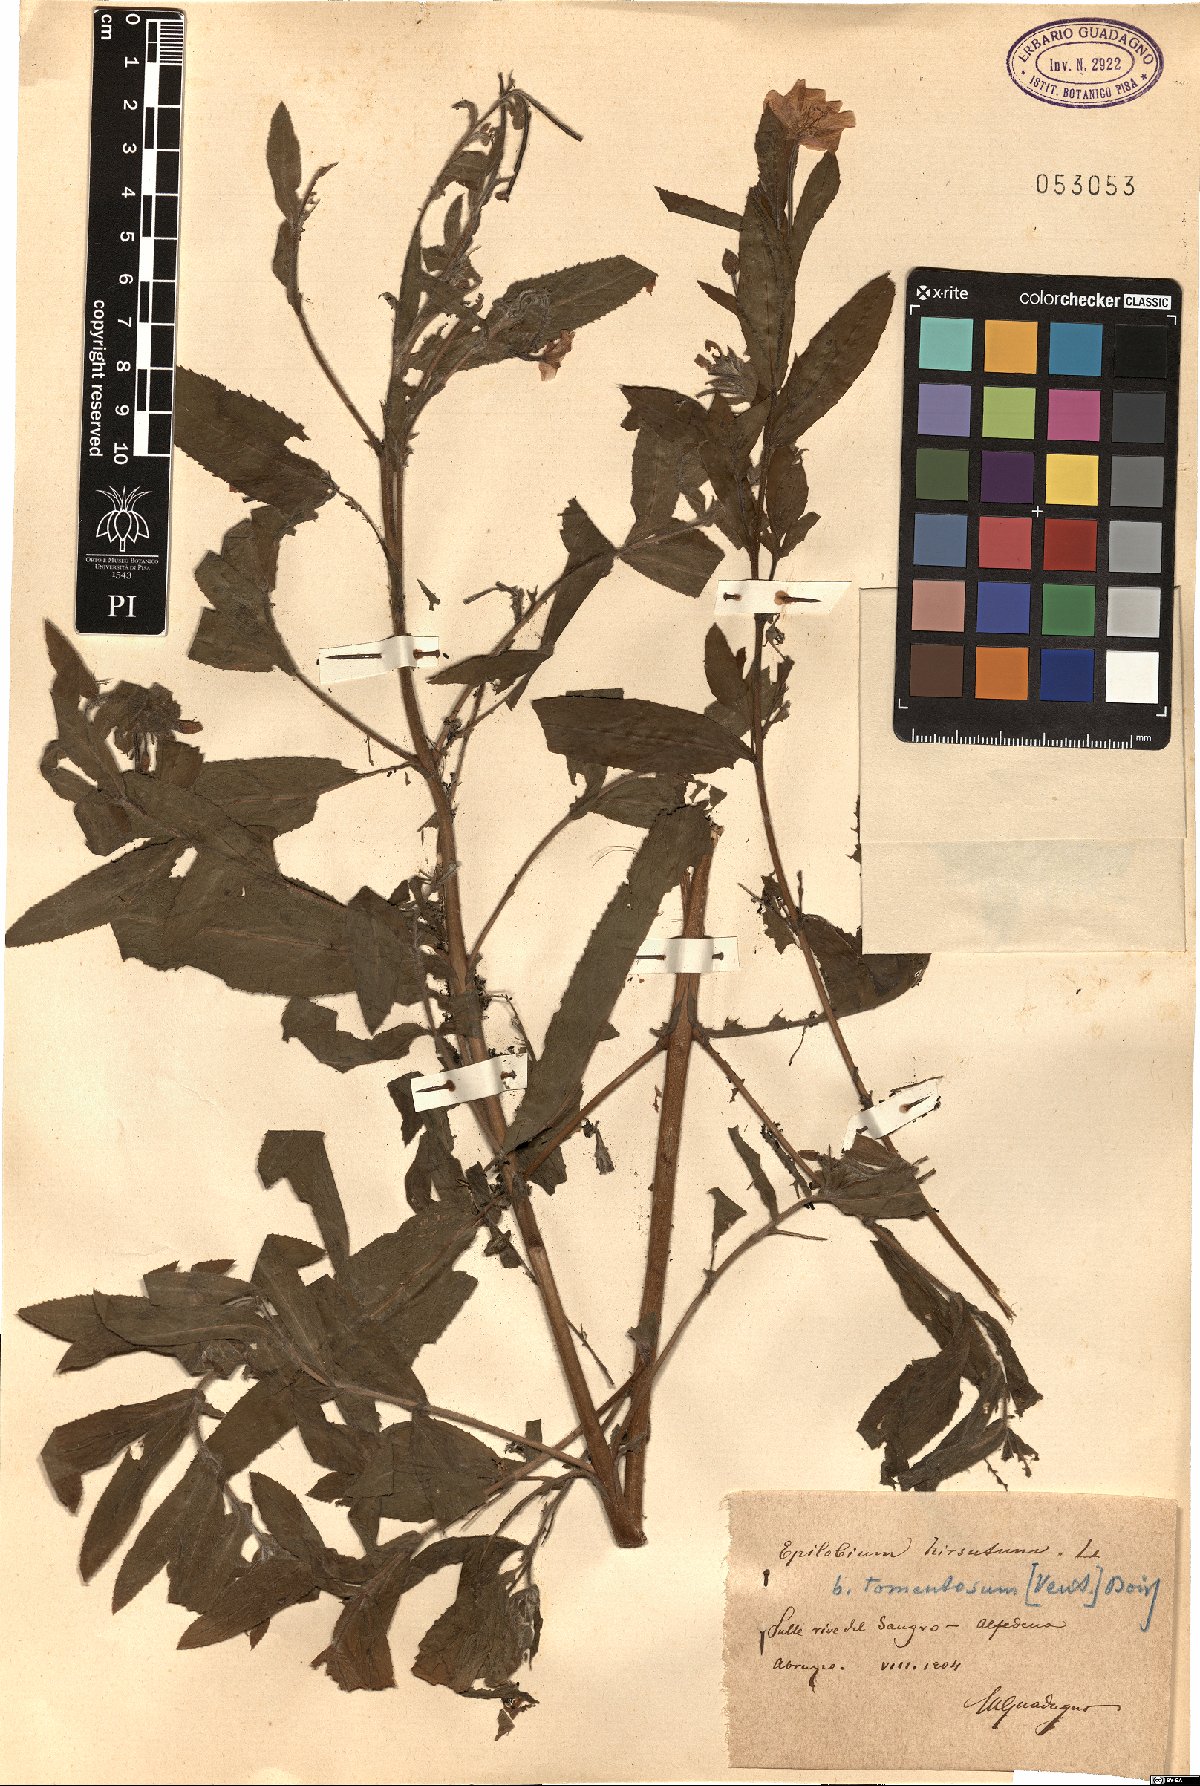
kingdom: Plantae
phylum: Tracheophyta
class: Magnoliopsida
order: Myrtales
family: Onagraceae
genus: Epilobium
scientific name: Epilobium hirsutum
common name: Great willowherb
